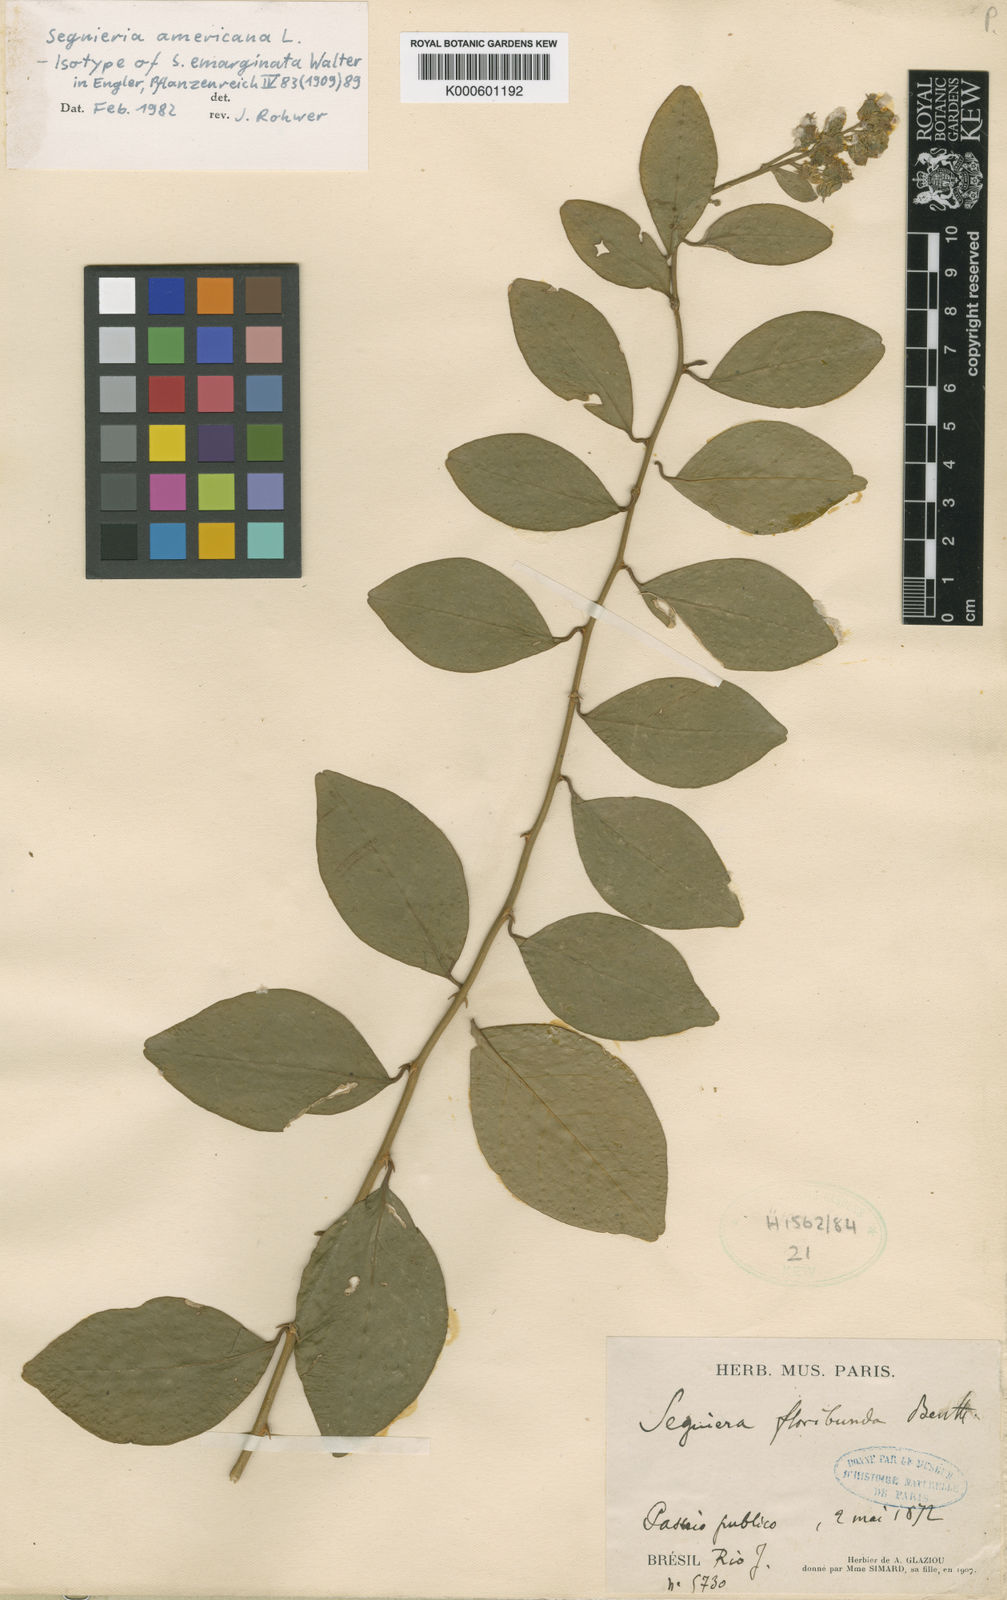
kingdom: Plantae
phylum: Tracheophyta
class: Magnoliopsida
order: Caryophyllales
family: Phytolaccaceae
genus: Seguieria
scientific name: Seguieria americana
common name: American seguieria
